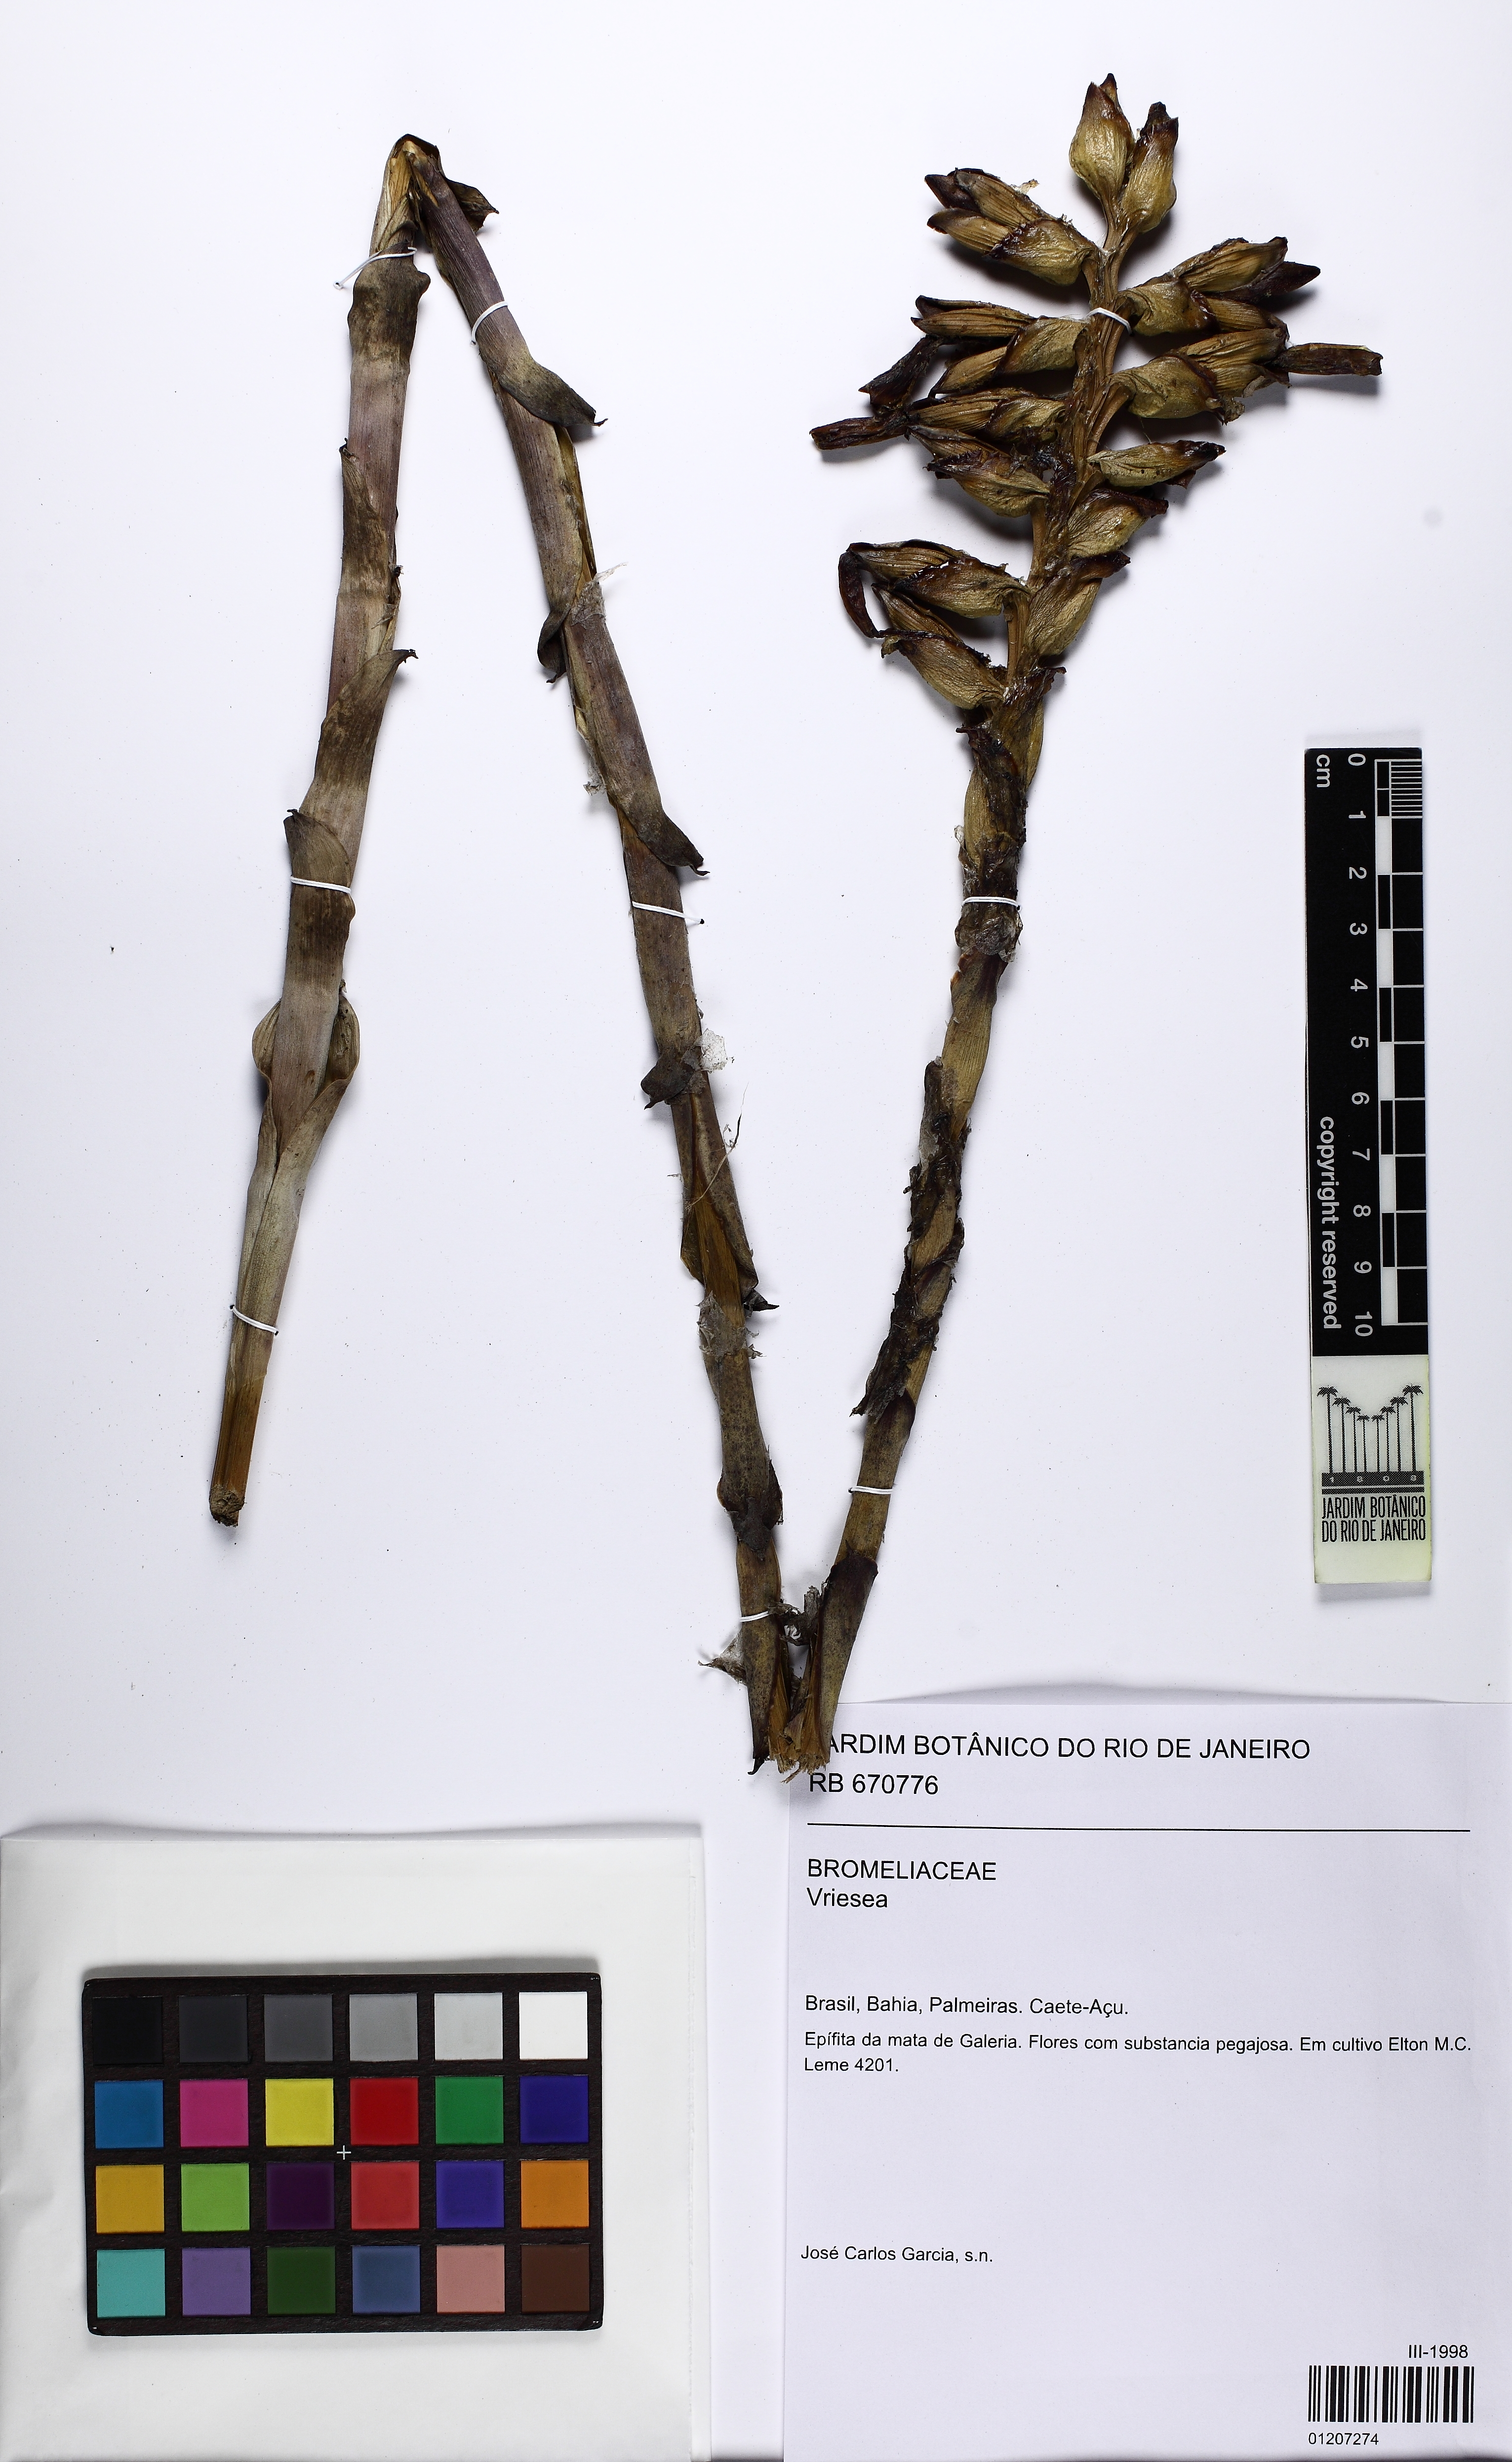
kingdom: Plantae
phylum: Tracheophyta
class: Liliopsida
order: Poales
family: Bromeliaceae
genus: Vriesea
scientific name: Vriesea minor
